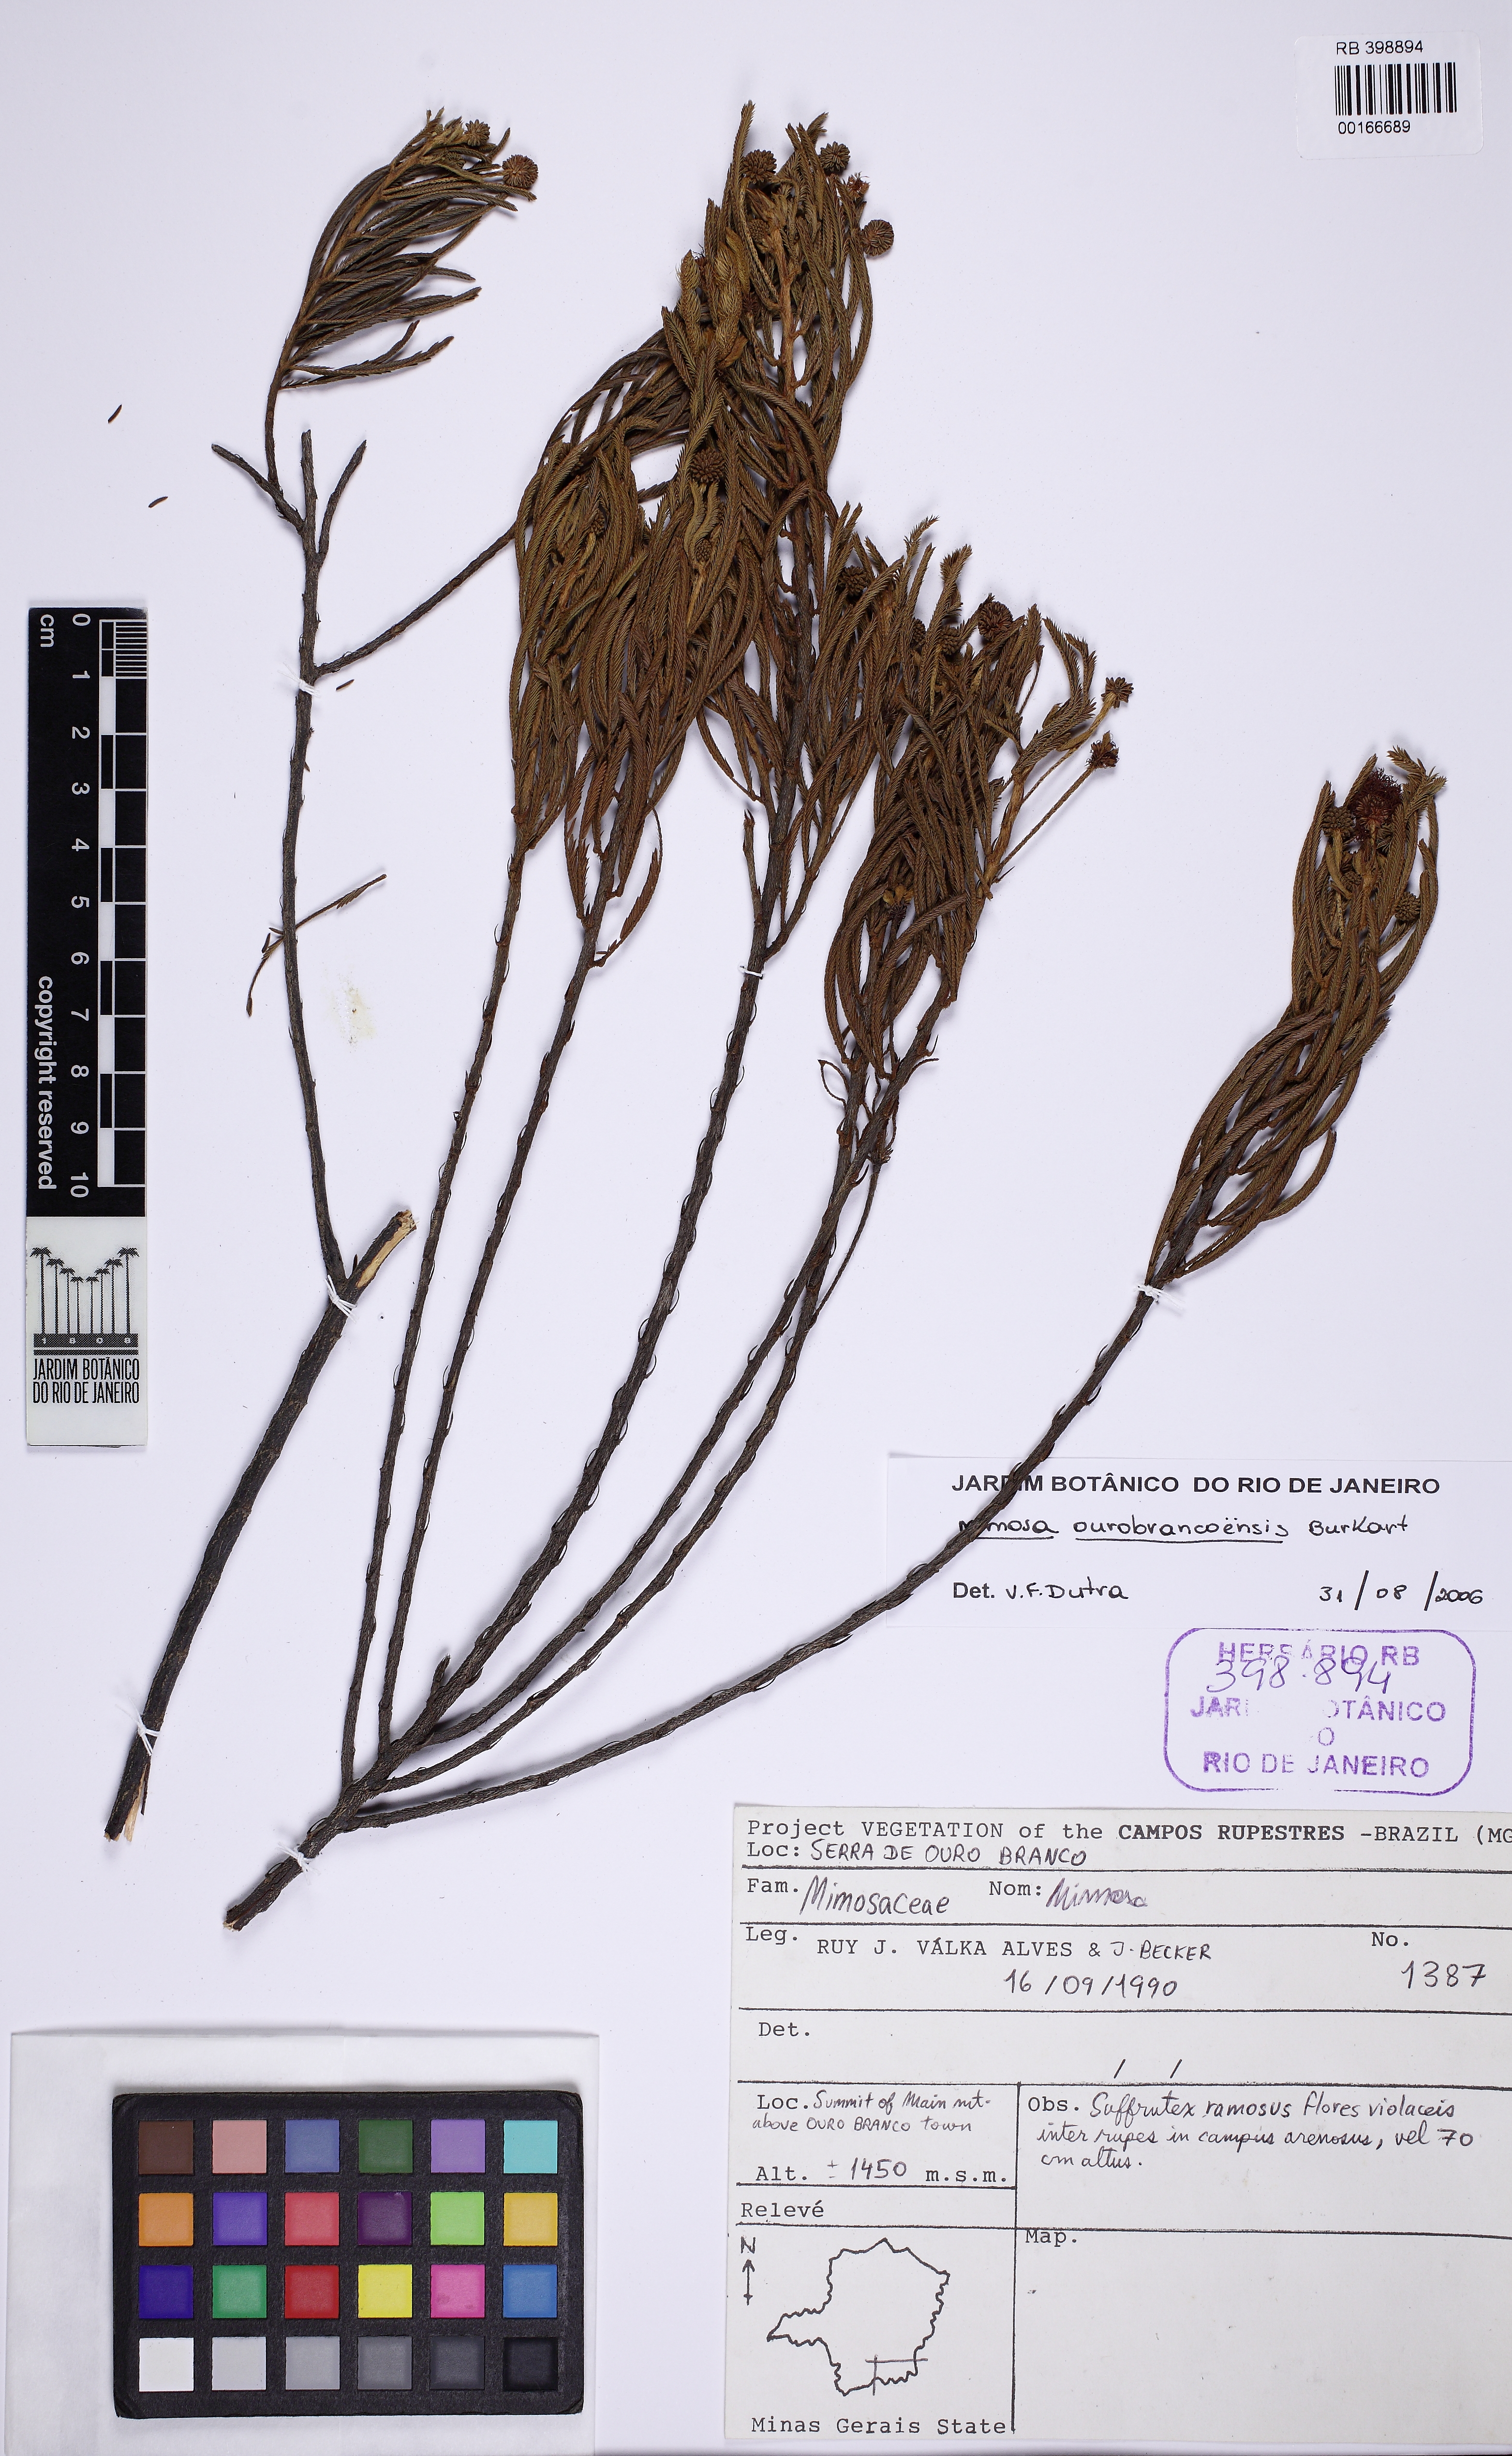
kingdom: Plantae
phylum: Tracheophyta
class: Magnoliopsida
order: Fabales
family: Fabaceae
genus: Mimosa
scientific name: Mimosa ourobrancoensis
